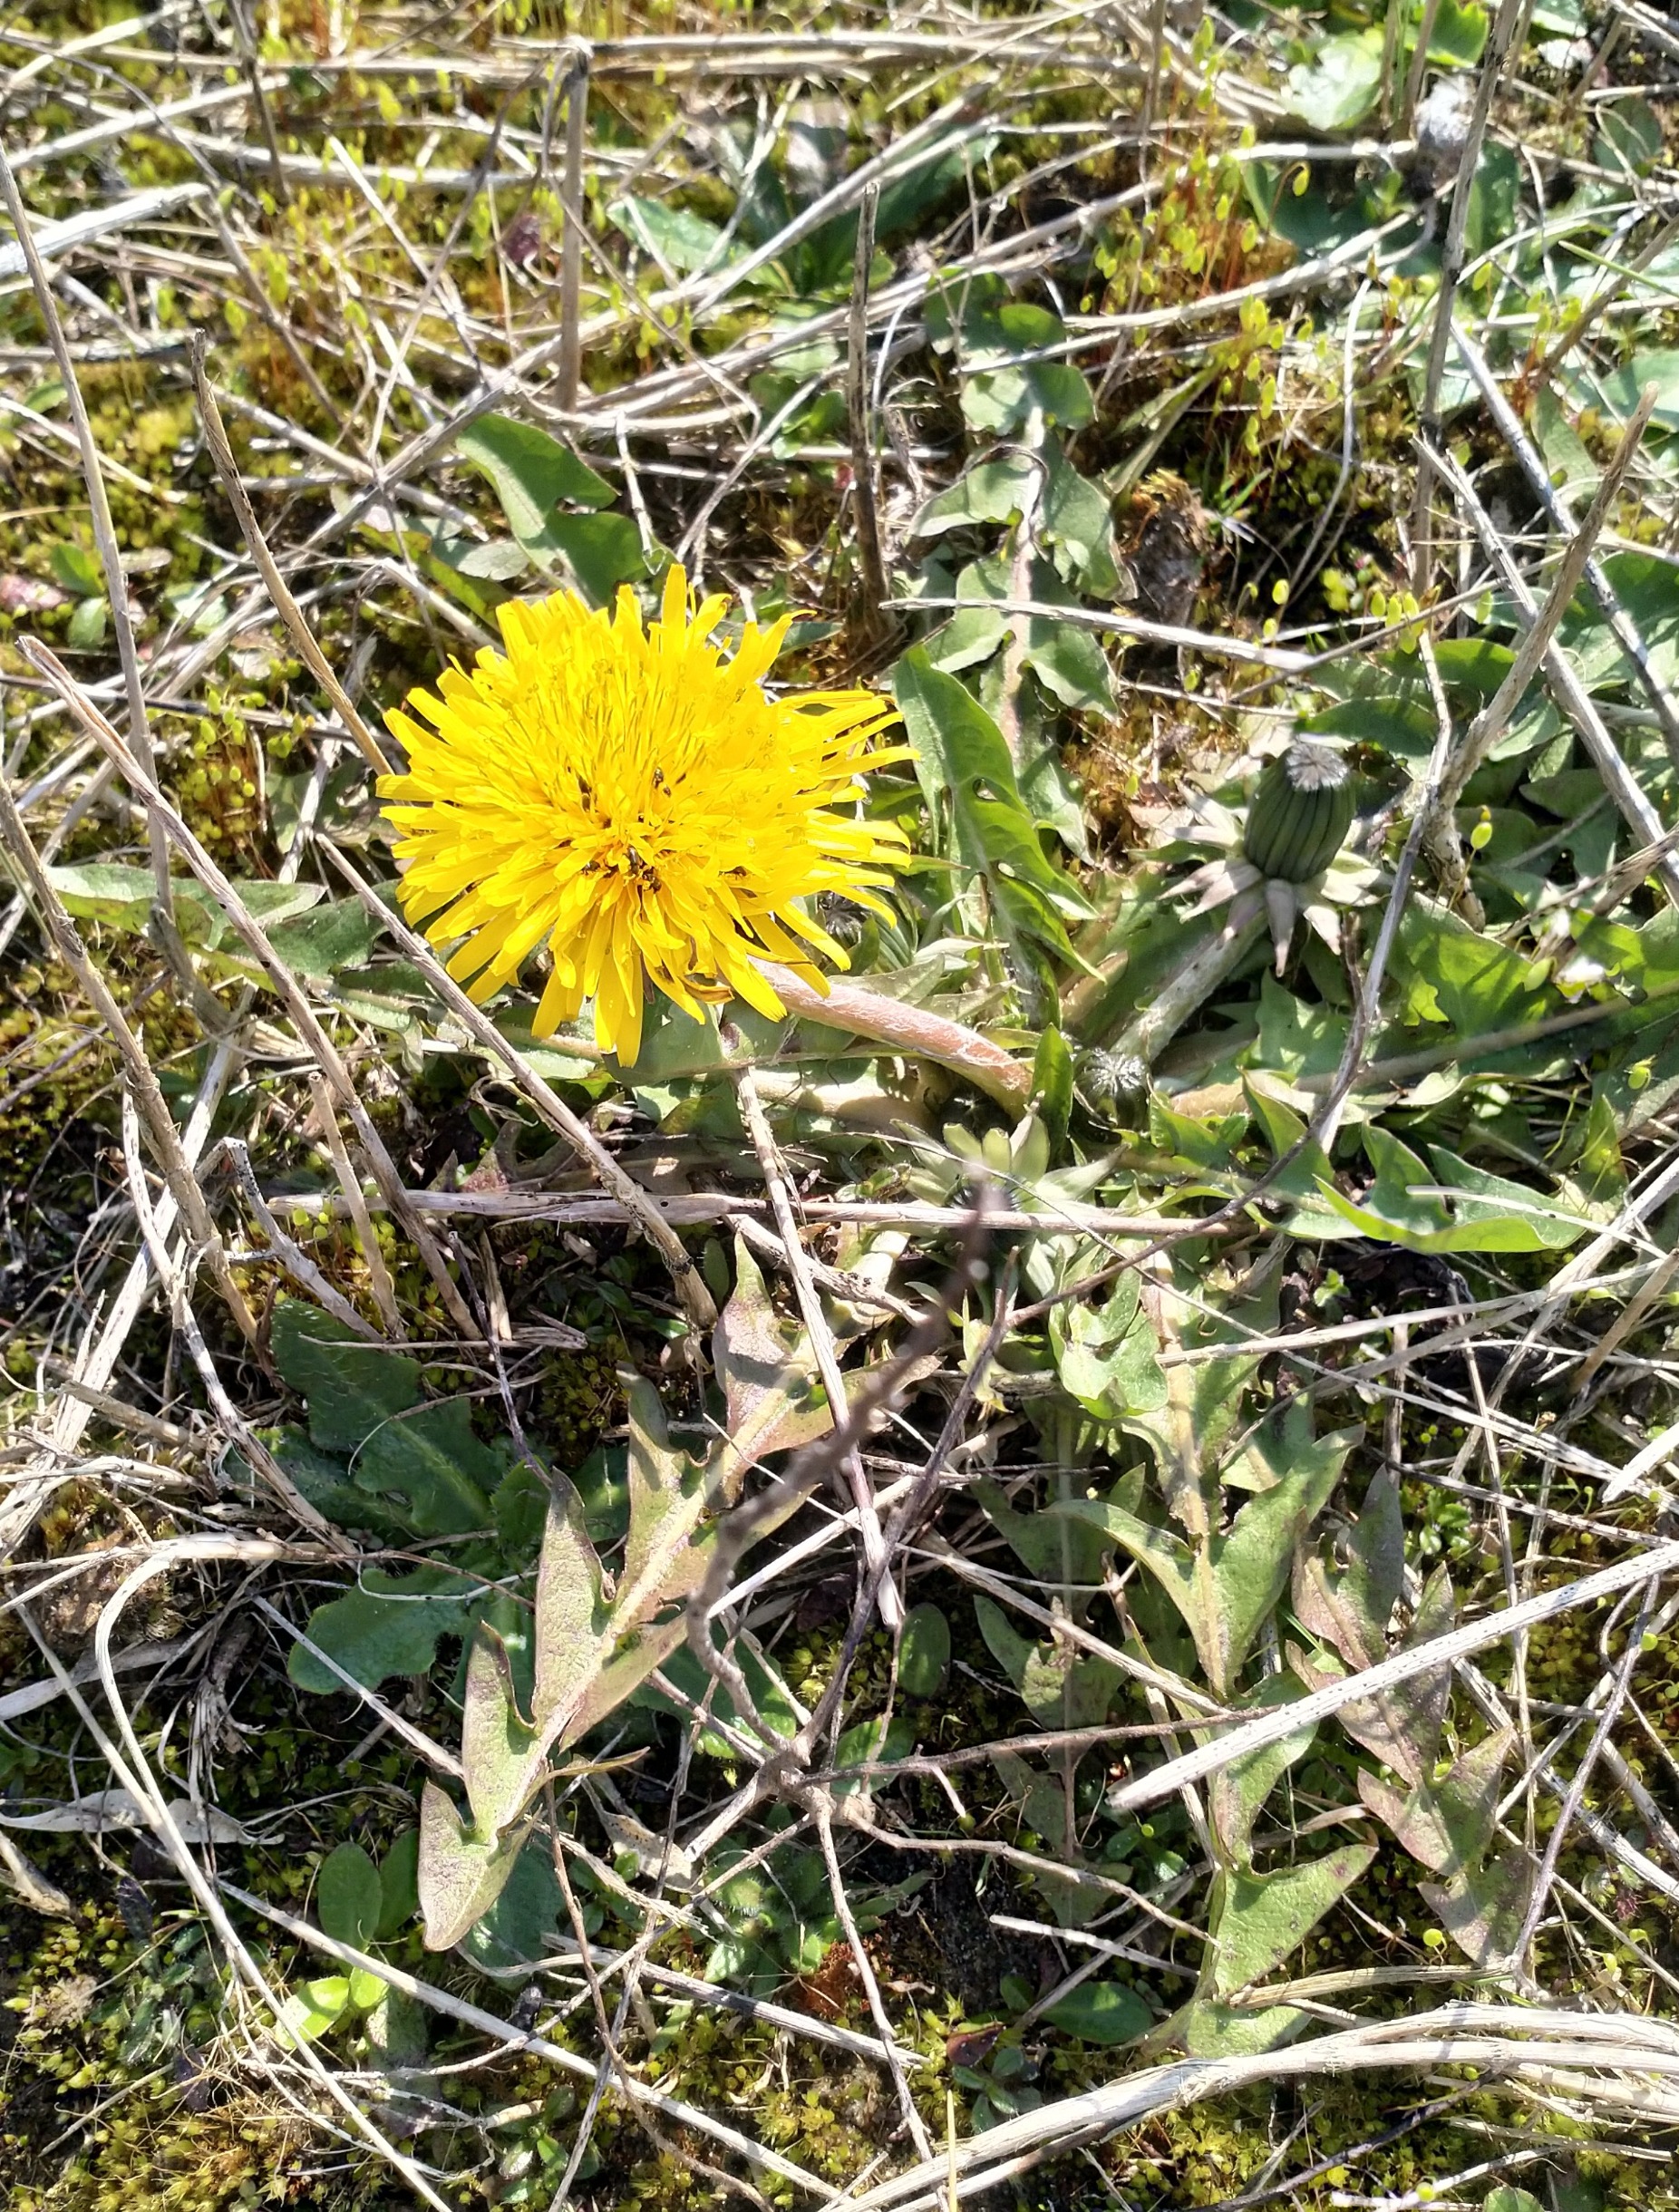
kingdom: Plantae
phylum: Tracheophyta
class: Magnoliopsida
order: Asterales
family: Asteraceae
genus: Taraxacum
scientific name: Taraxacum
